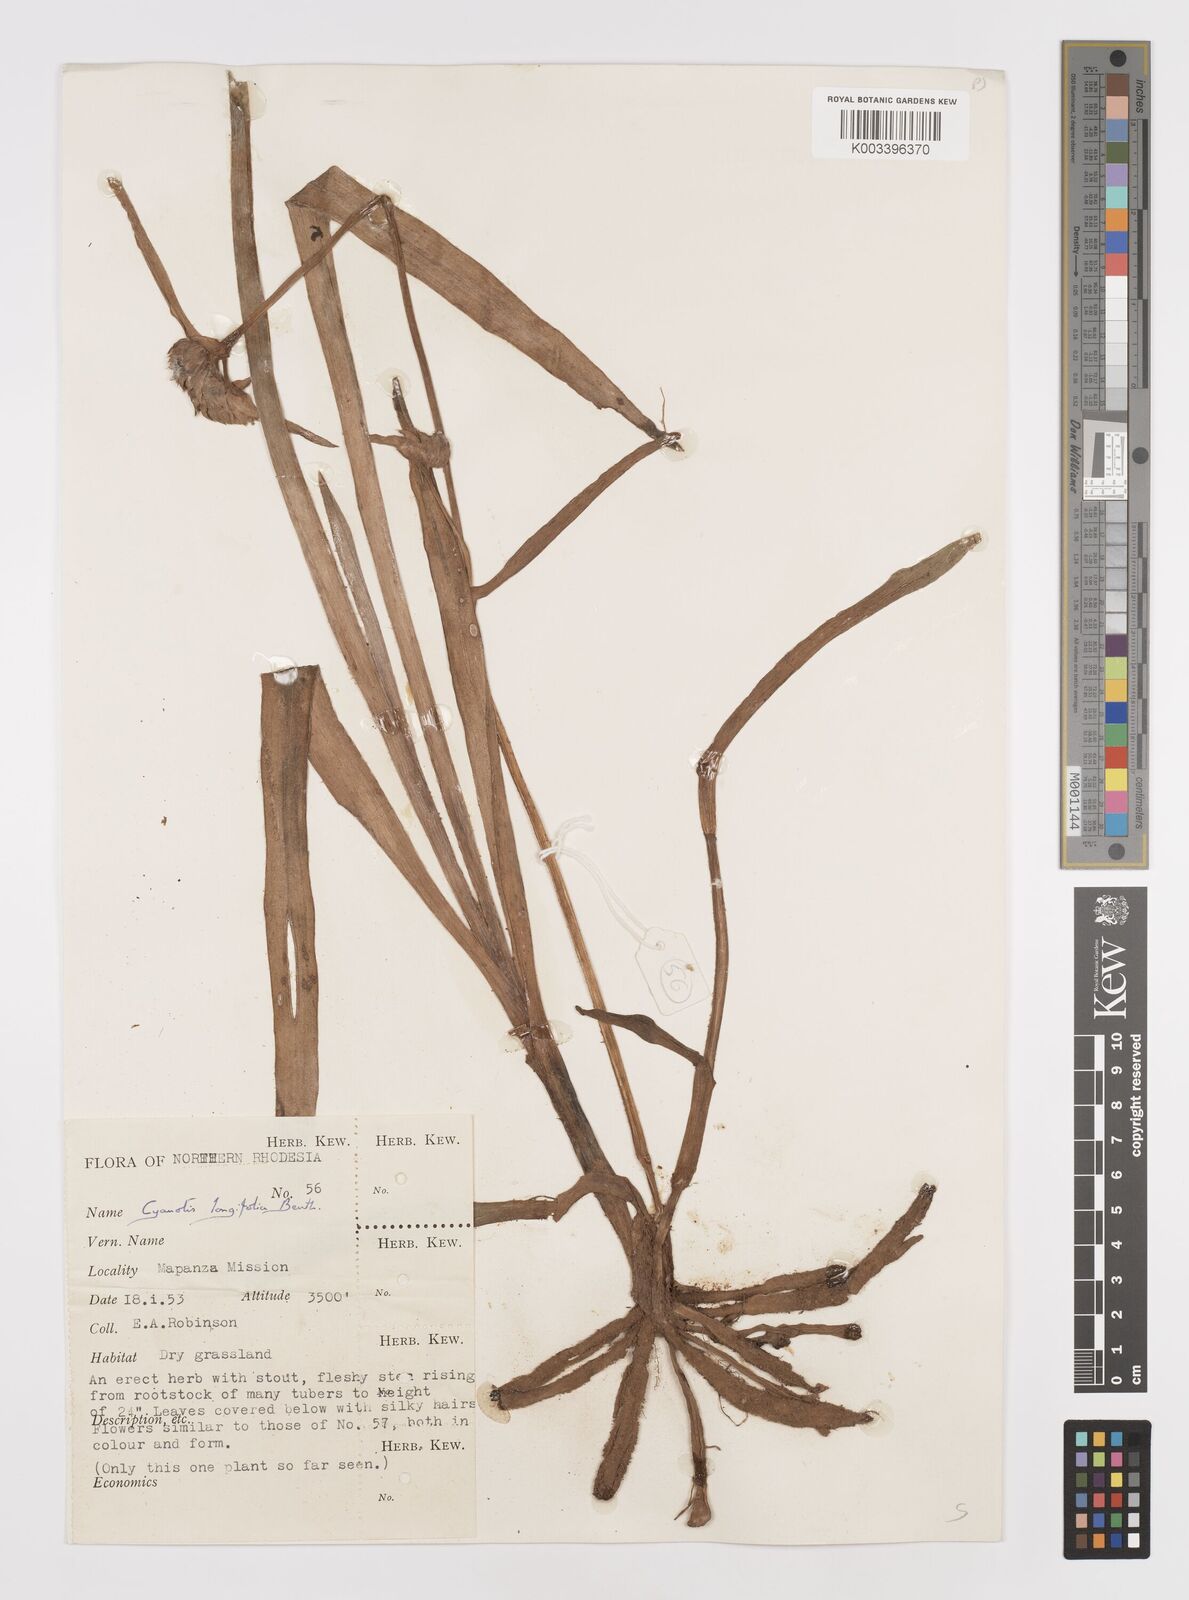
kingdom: Plantae
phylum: Tracheophyta
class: Liliopsida
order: Commelinales
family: Commelinaceae
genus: Cyanotis
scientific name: Cyanotis longifolia
